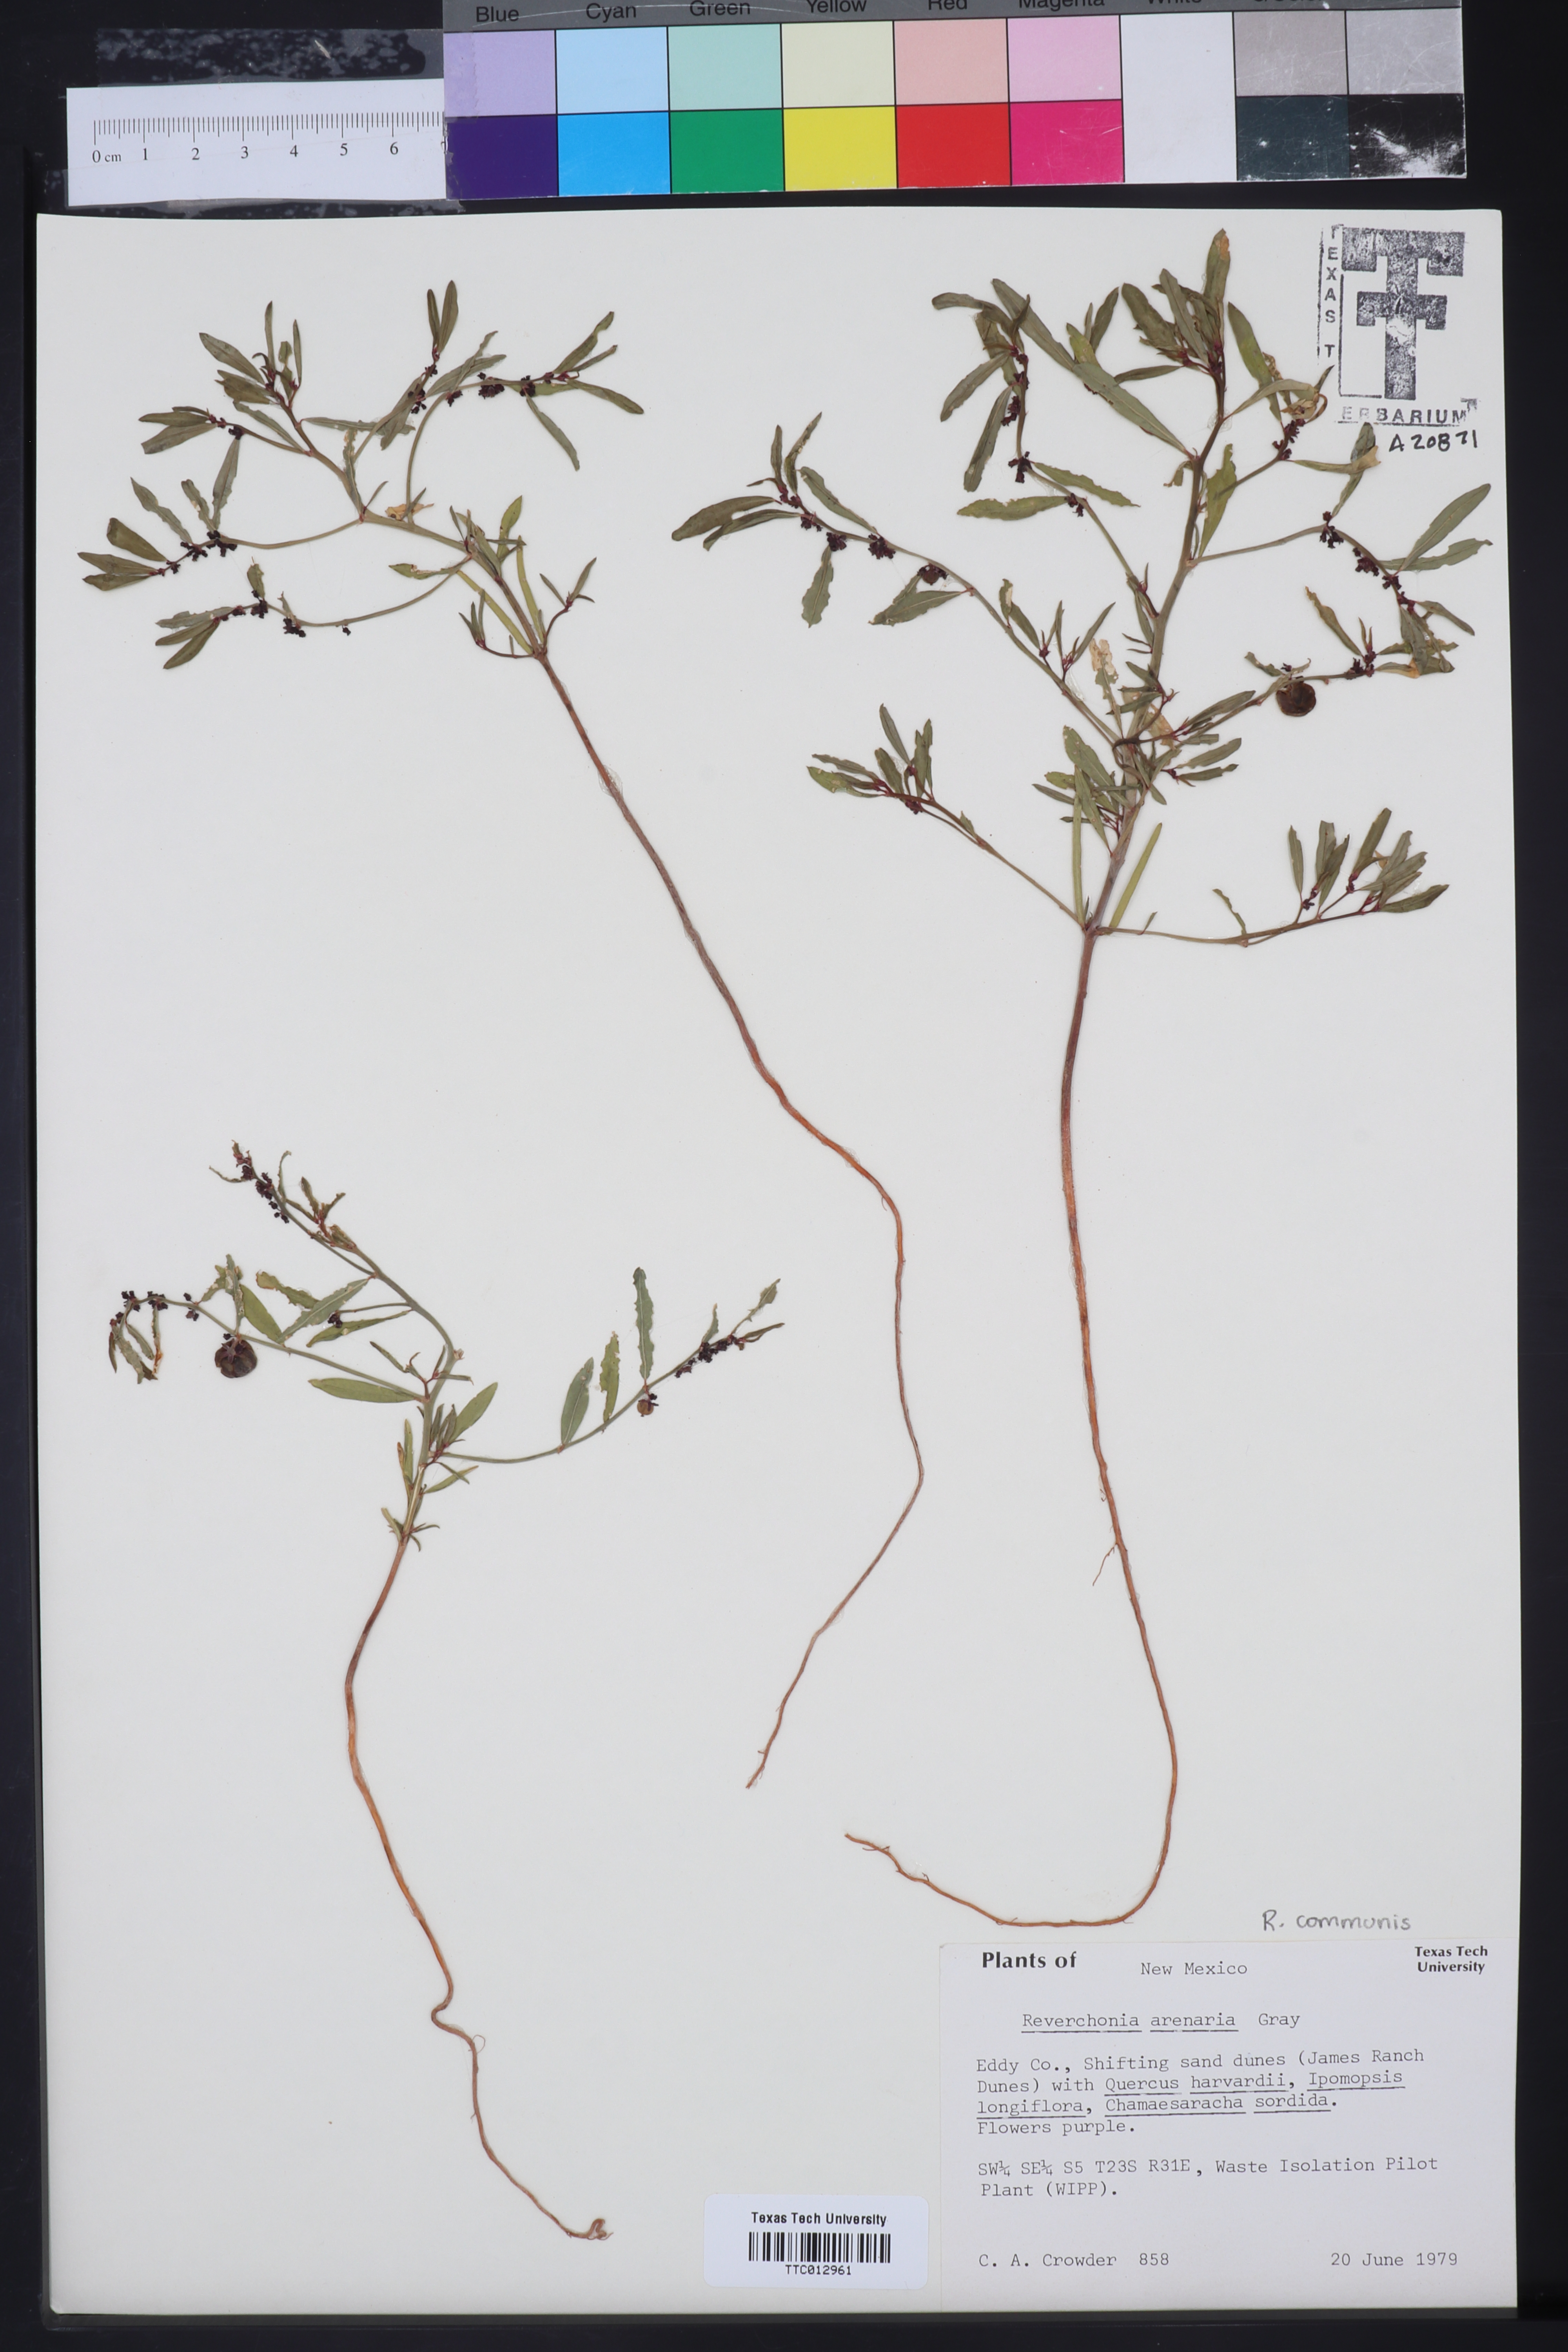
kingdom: Plantae
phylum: Tracheophyta
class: Magnoliopsida
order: Malpighiales
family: Phyllanthaceae
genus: Phyllanthus
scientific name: Phyllanthus warnockii
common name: Sand reverchonia
